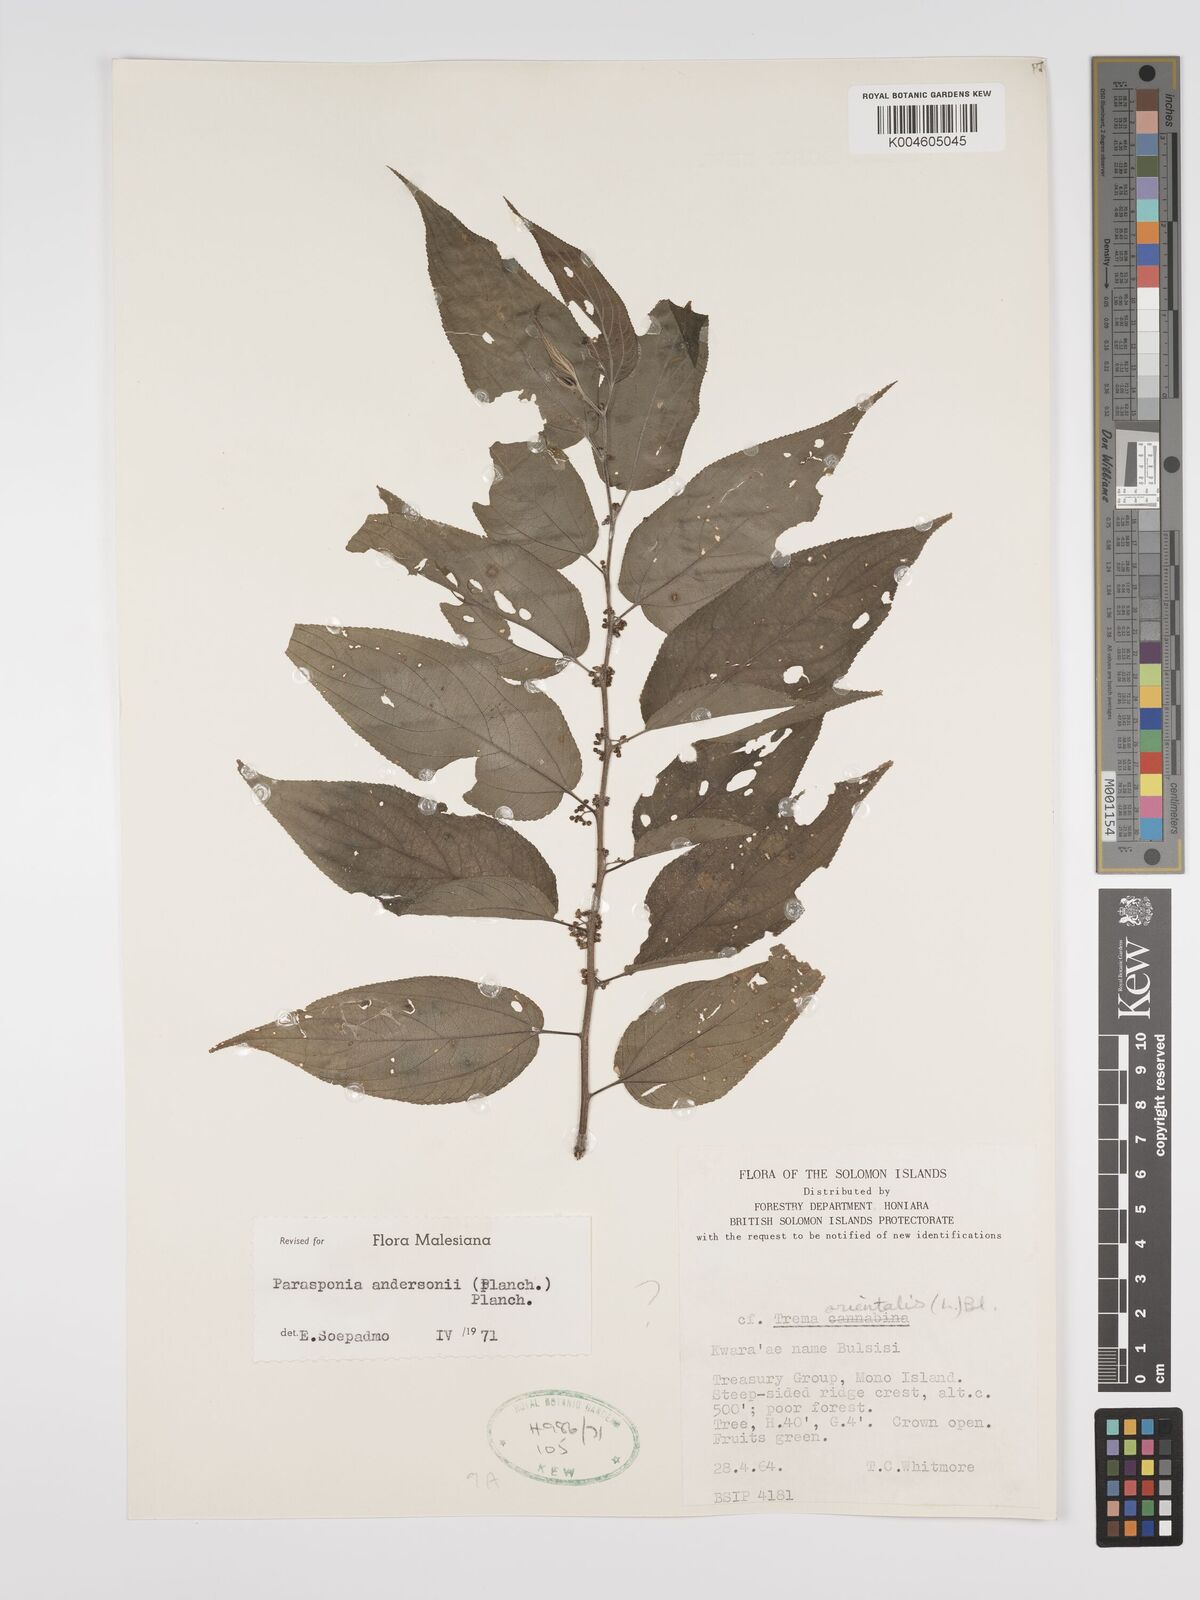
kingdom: Plantae
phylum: Tracheophyta
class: Magnoliopsida
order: Rosales
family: Cannabaceae
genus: Trema
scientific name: Trema andersonii
